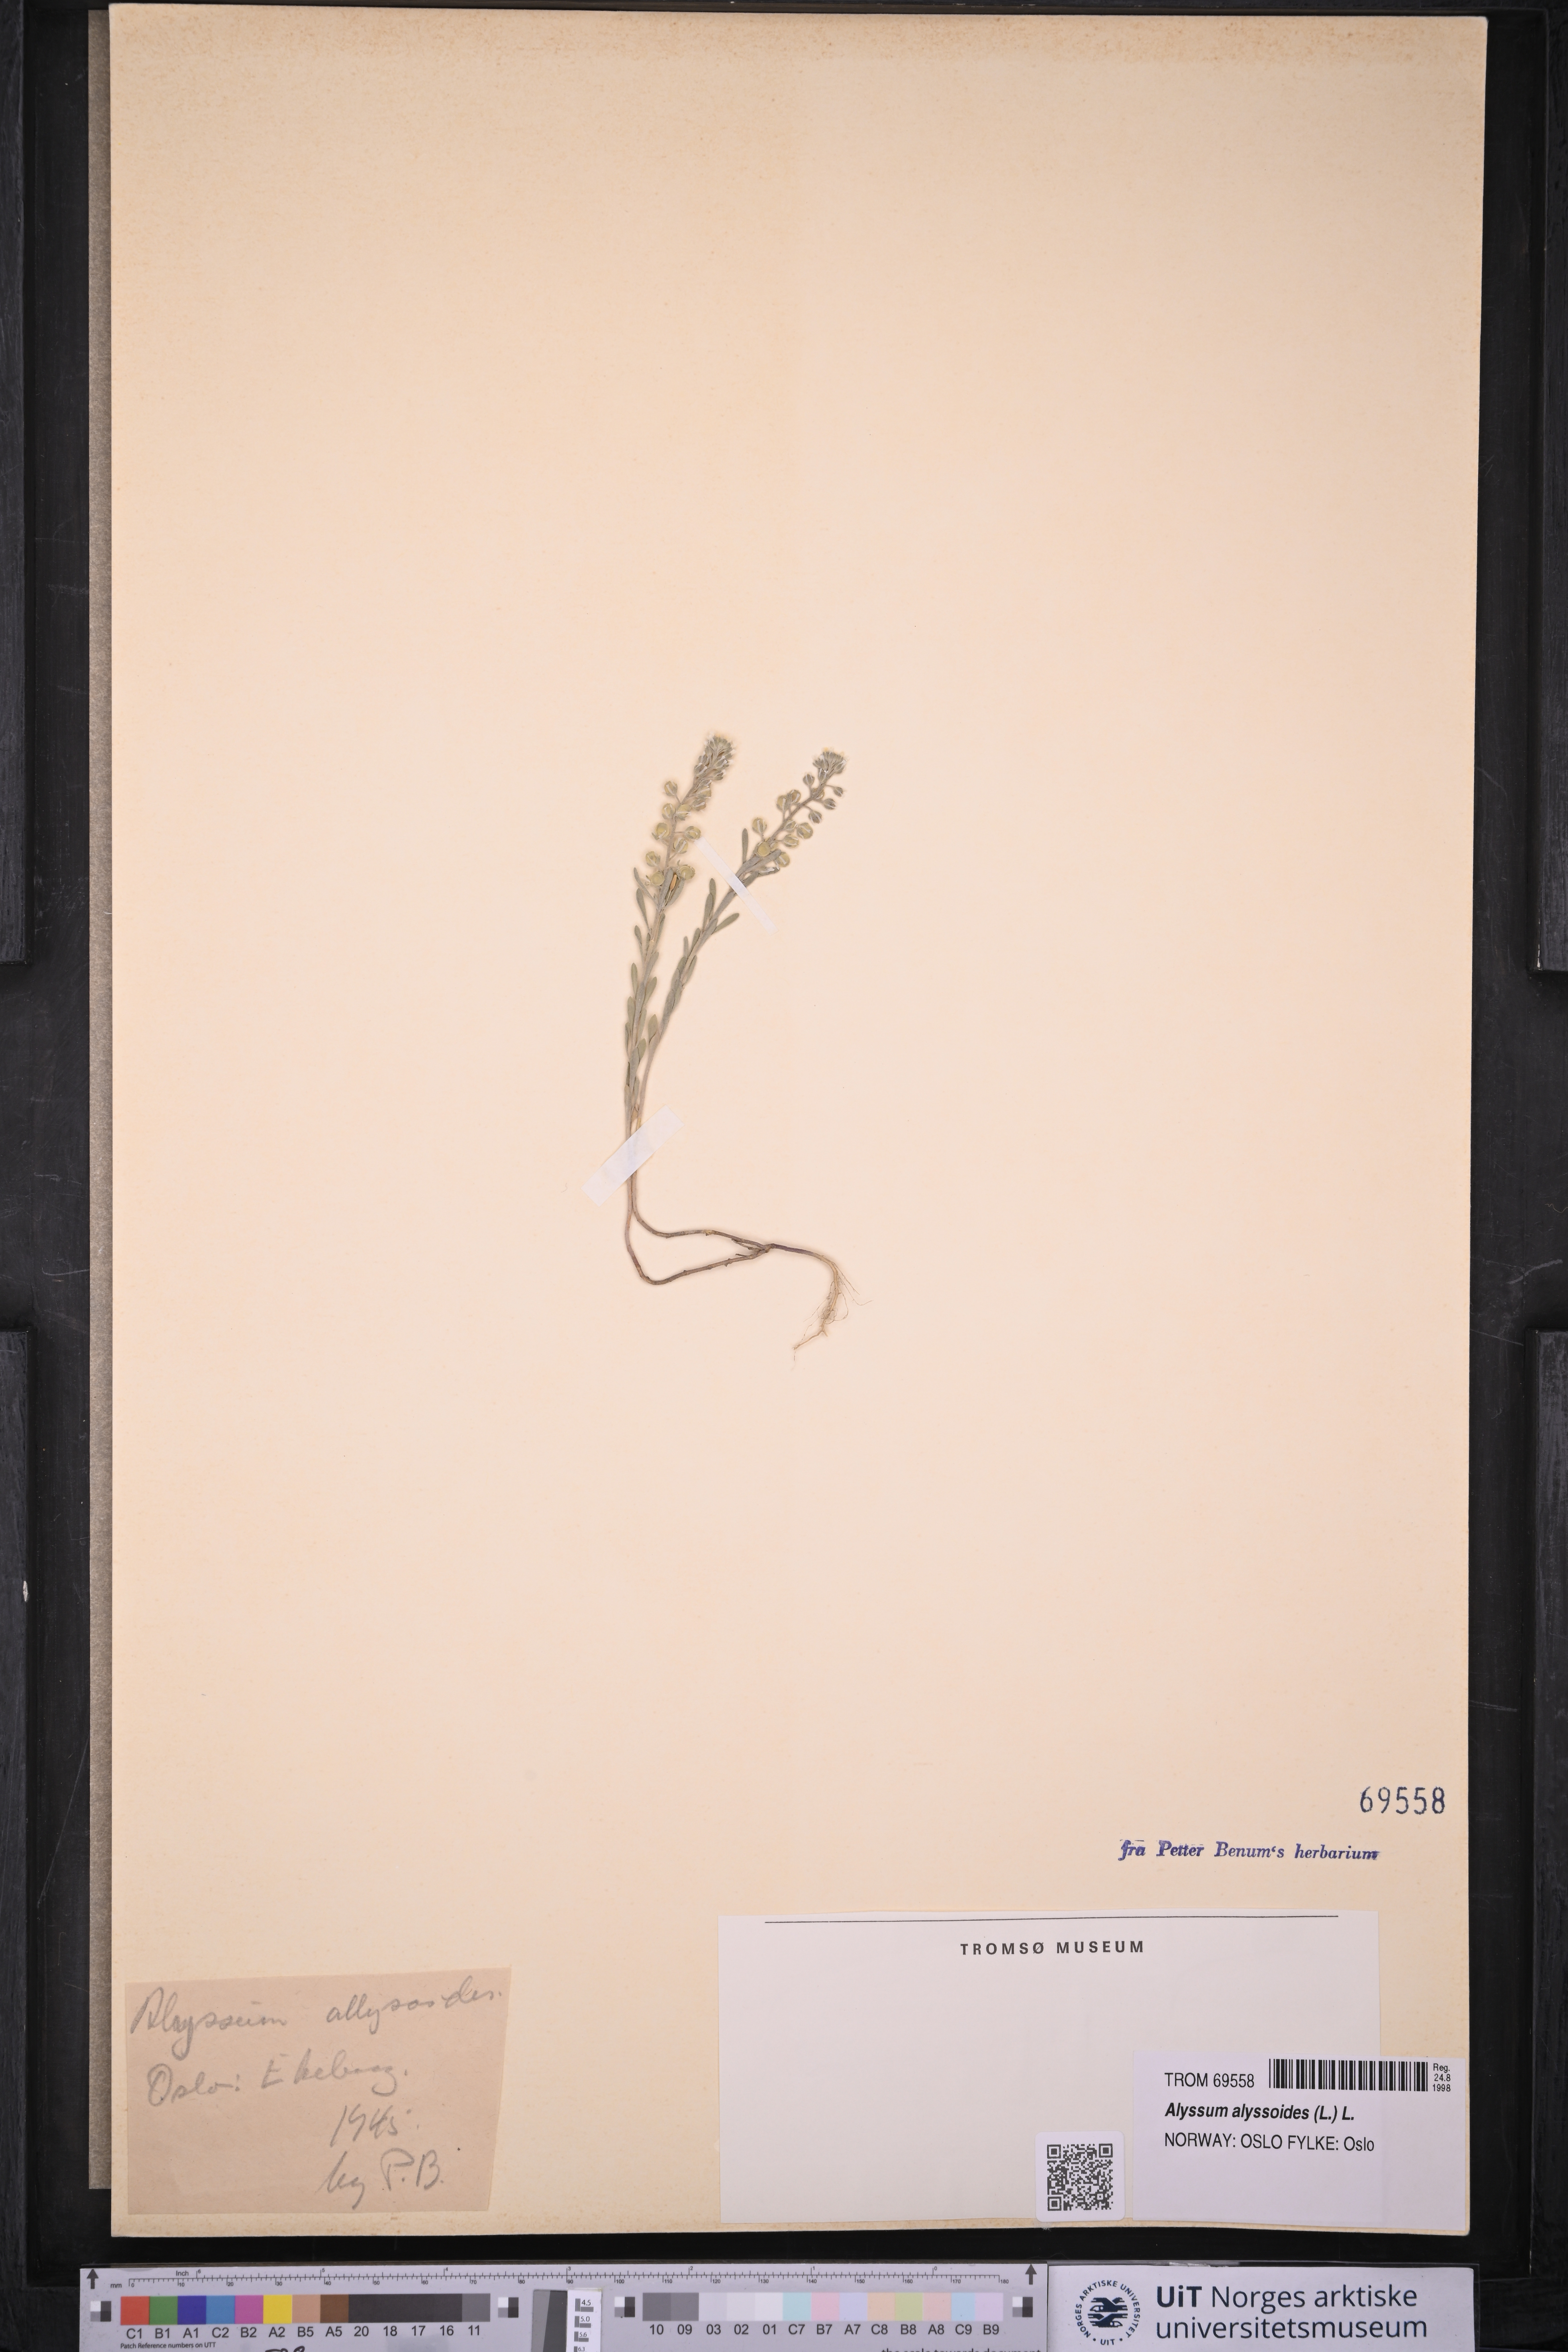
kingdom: Plantae
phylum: Tracheophyta
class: Magnoliopsida
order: Brassicales
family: Brassicaceae
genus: Alyssum
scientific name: Alyssum alyssoides
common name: Small alison
